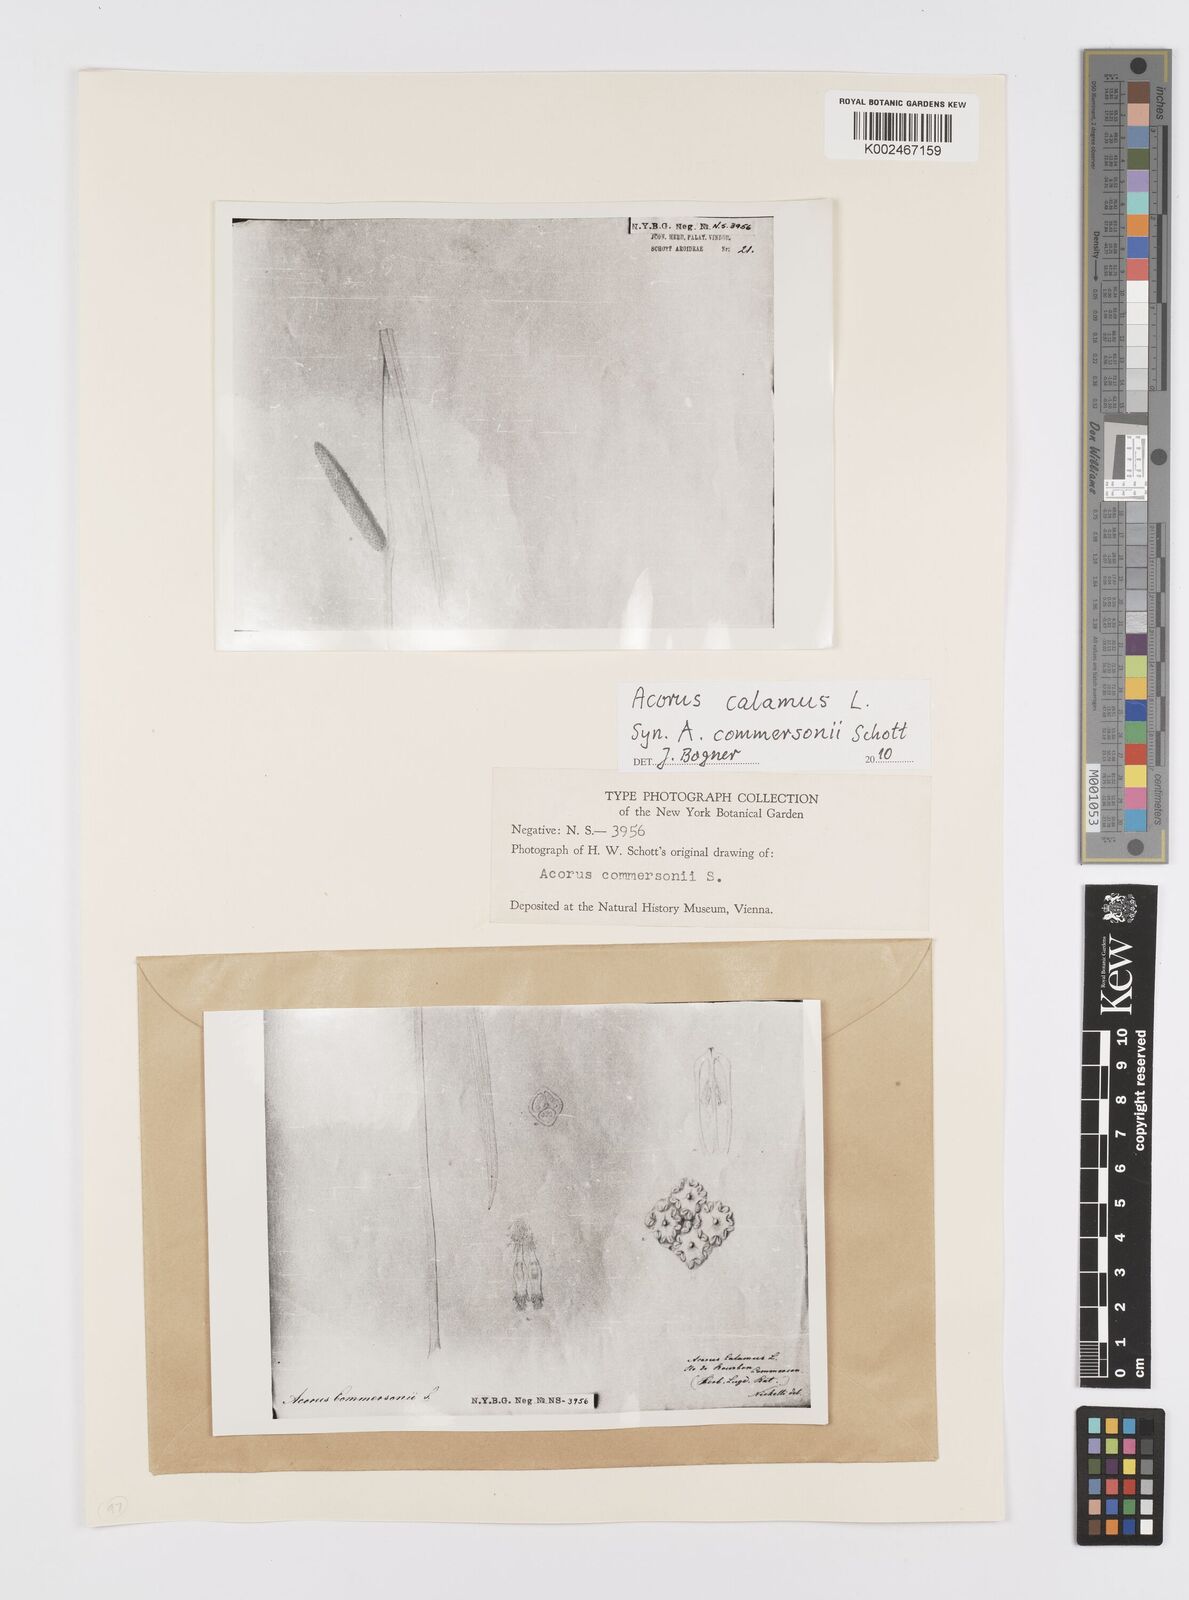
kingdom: Plantae
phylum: Tracheophyta
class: Liliopsida
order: Acorales
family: Acoraceae
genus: Acorus
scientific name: Acorus calamus
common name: Sweet-flag
